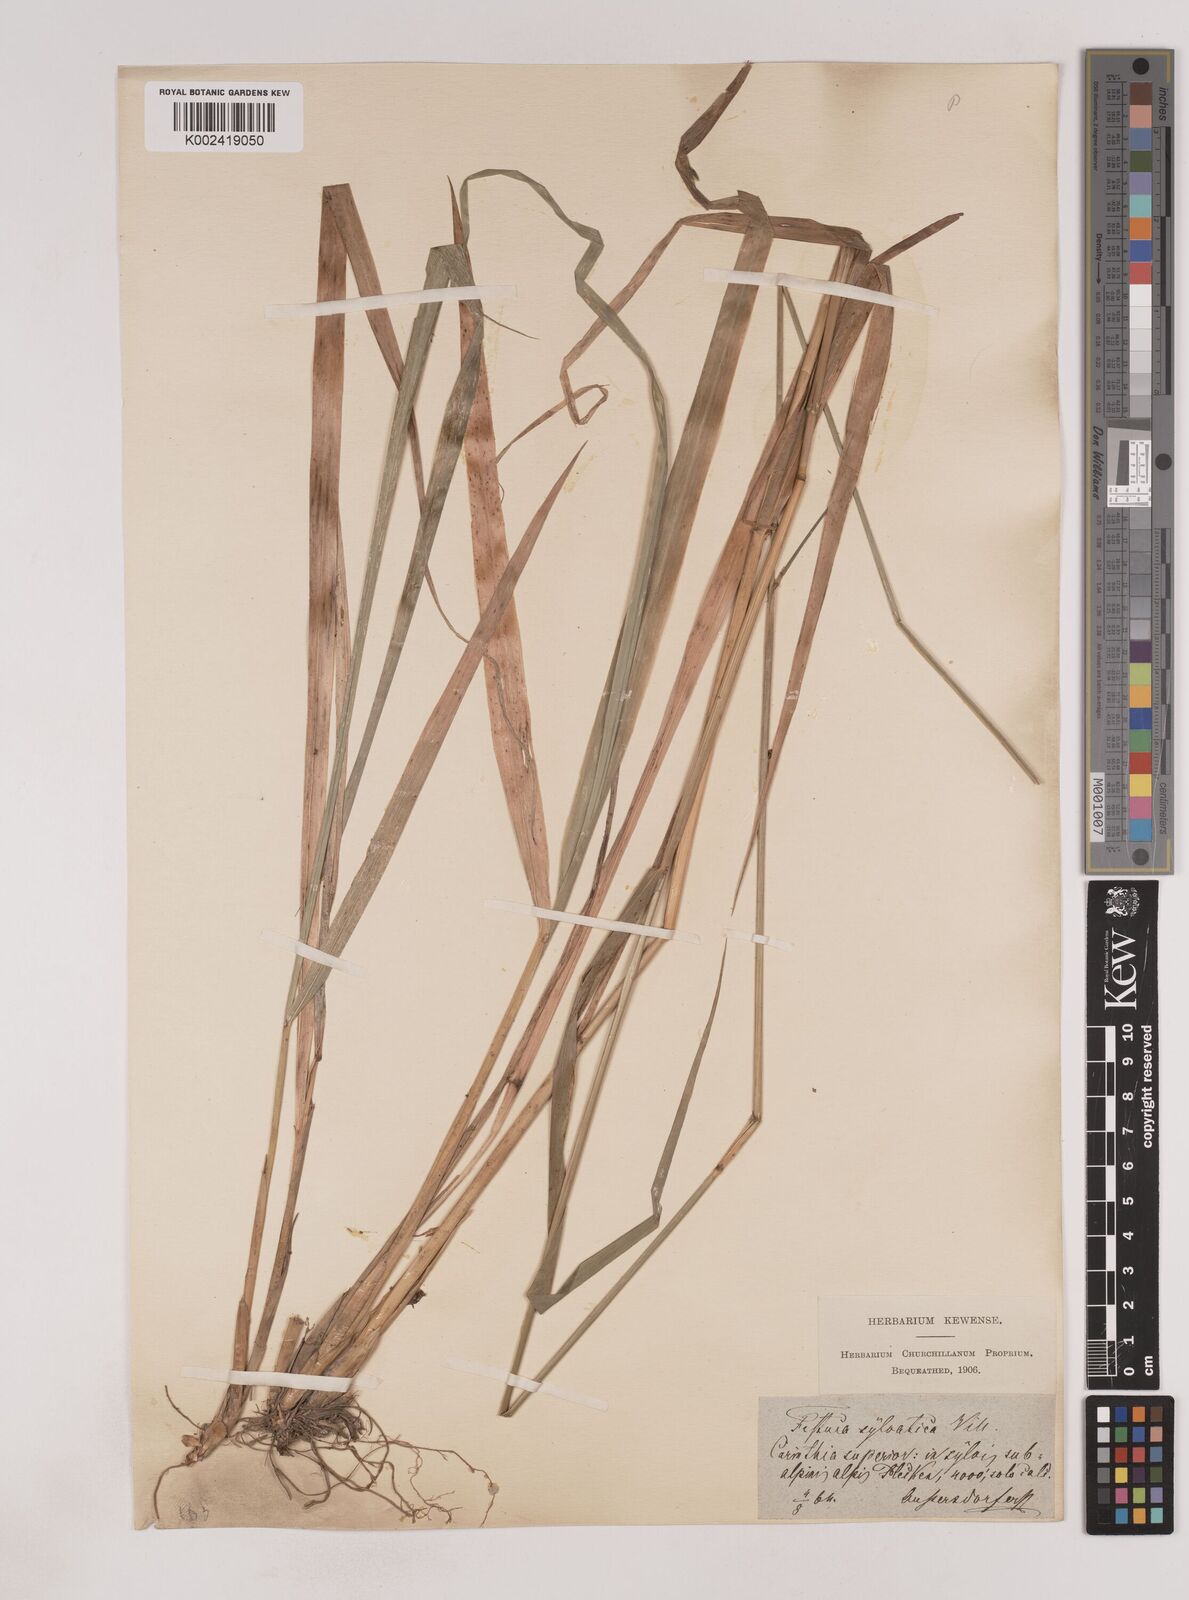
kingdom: Plantae
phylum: Tracheophyta
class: Liliopsida
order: Poales
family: Poaceae
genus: Festuca
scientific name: Festuca drymeja
